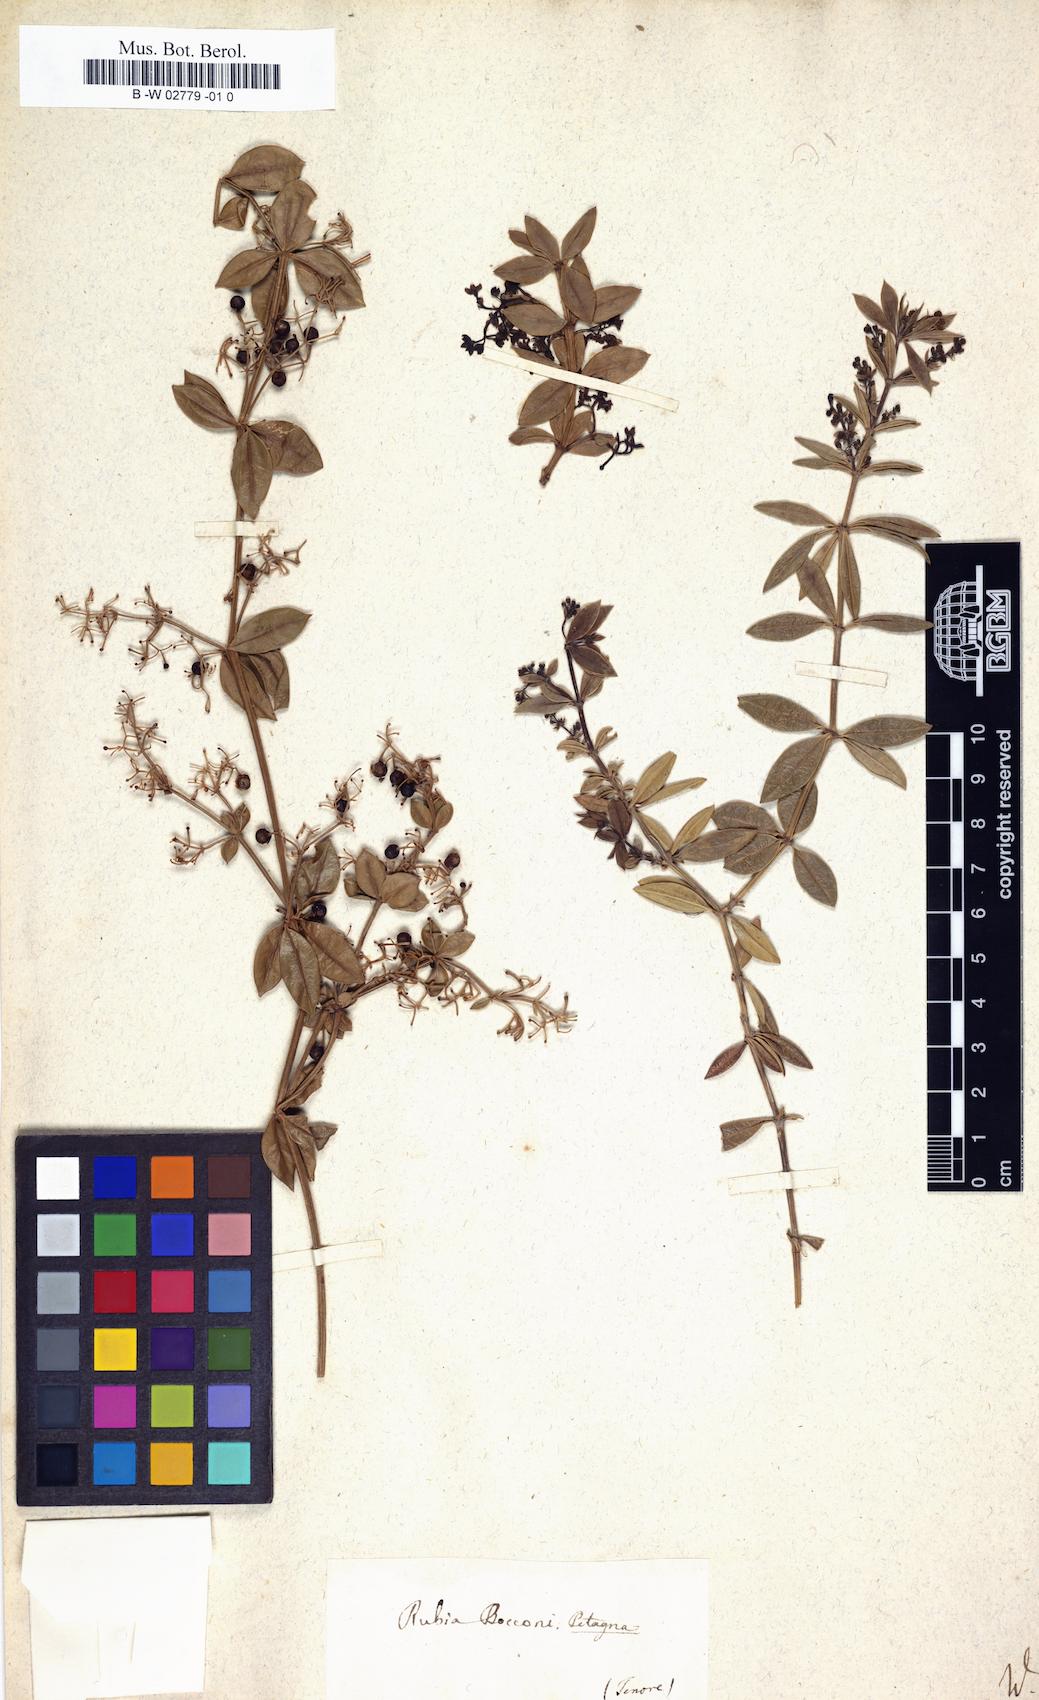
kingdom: Plantae
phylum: Tracheophyta
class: Magnoliopsida
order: Gentianales
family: Rubiaceae
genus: Rubia
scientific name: Rubia peregrina
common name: Wild madder
